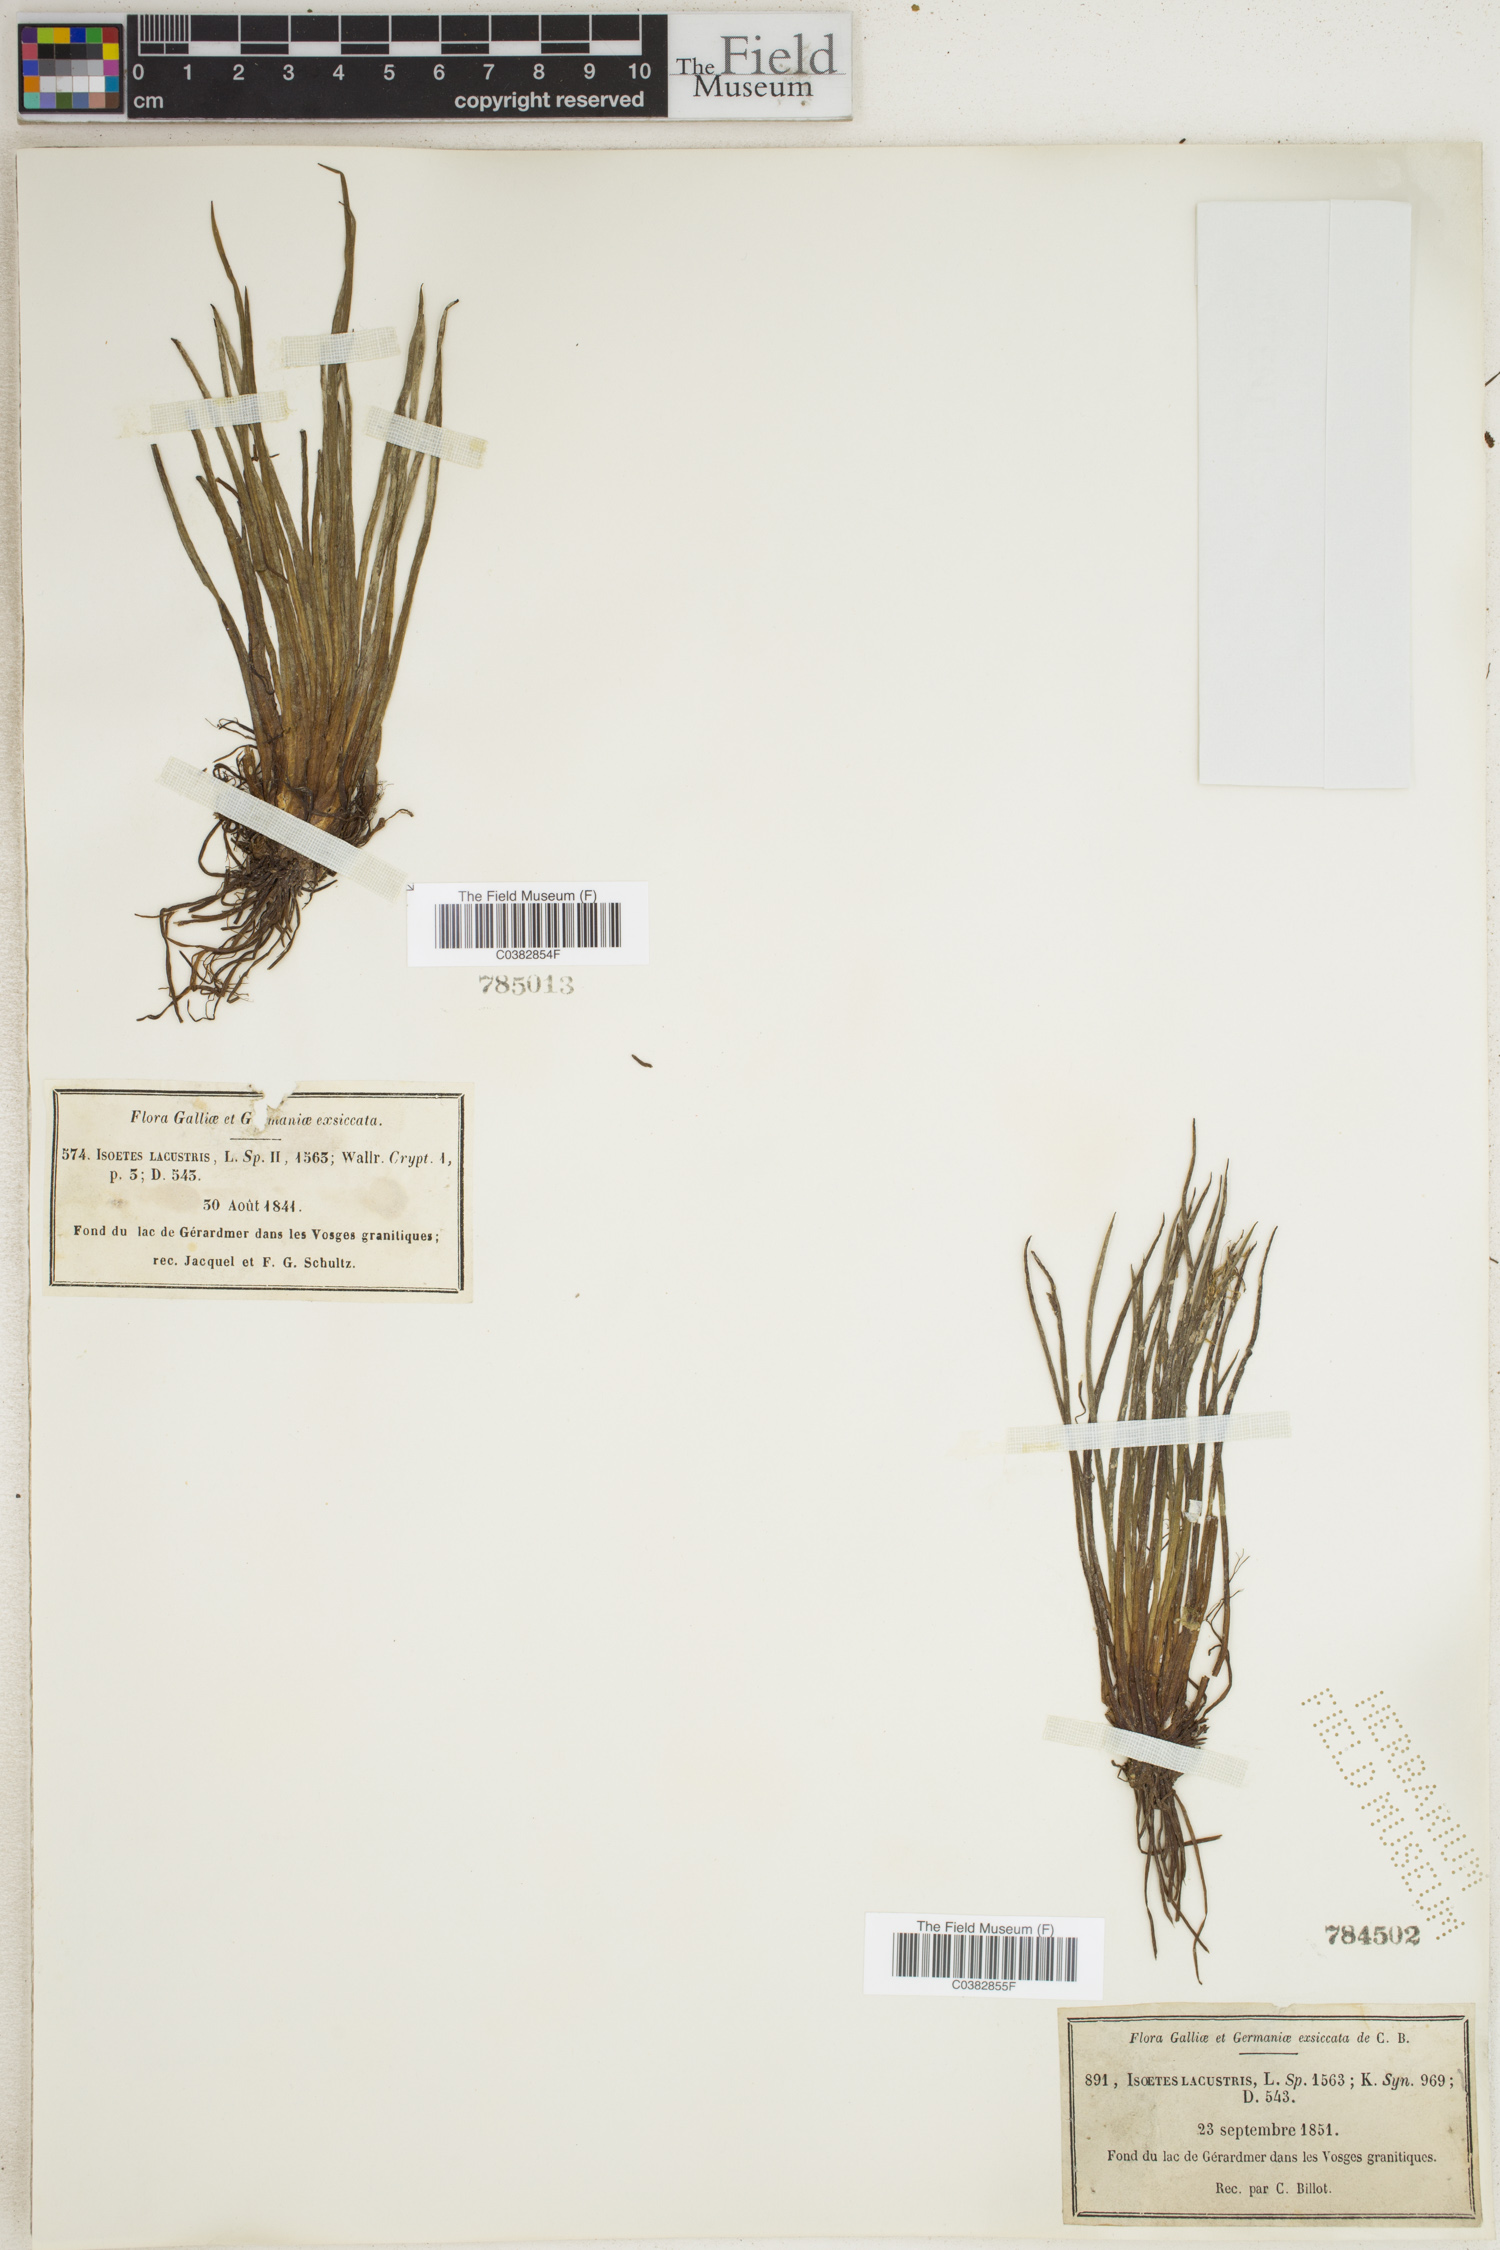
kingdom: Plantae
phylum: Tracheophyta
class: Lycopodiopsida
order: Isoetales
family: Isoetaceae
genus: Isoetes
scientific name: Isoetes lacustris
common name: Common quillwort
